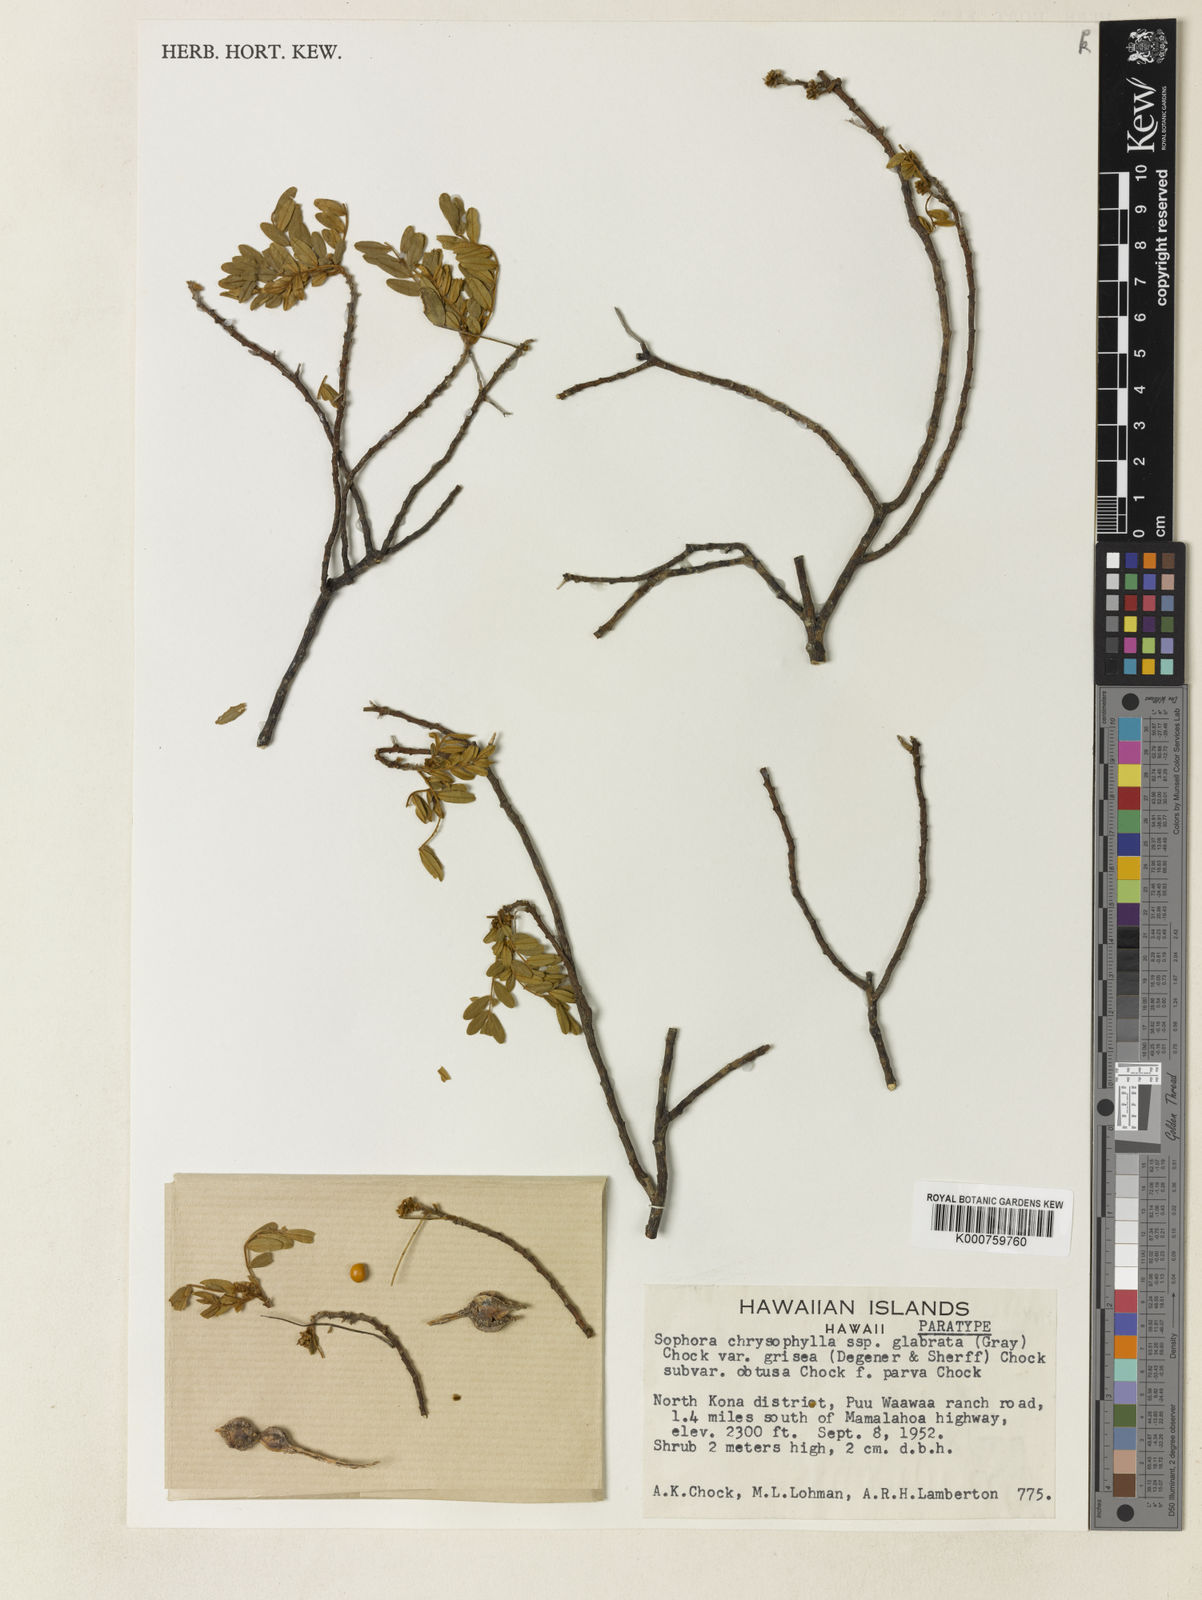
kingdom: Plantae
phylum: Tracheophyta
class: Magnoliopsida
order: Fabales
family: Fabaceae
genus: Sophora
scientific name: Sophora chrysophylla
